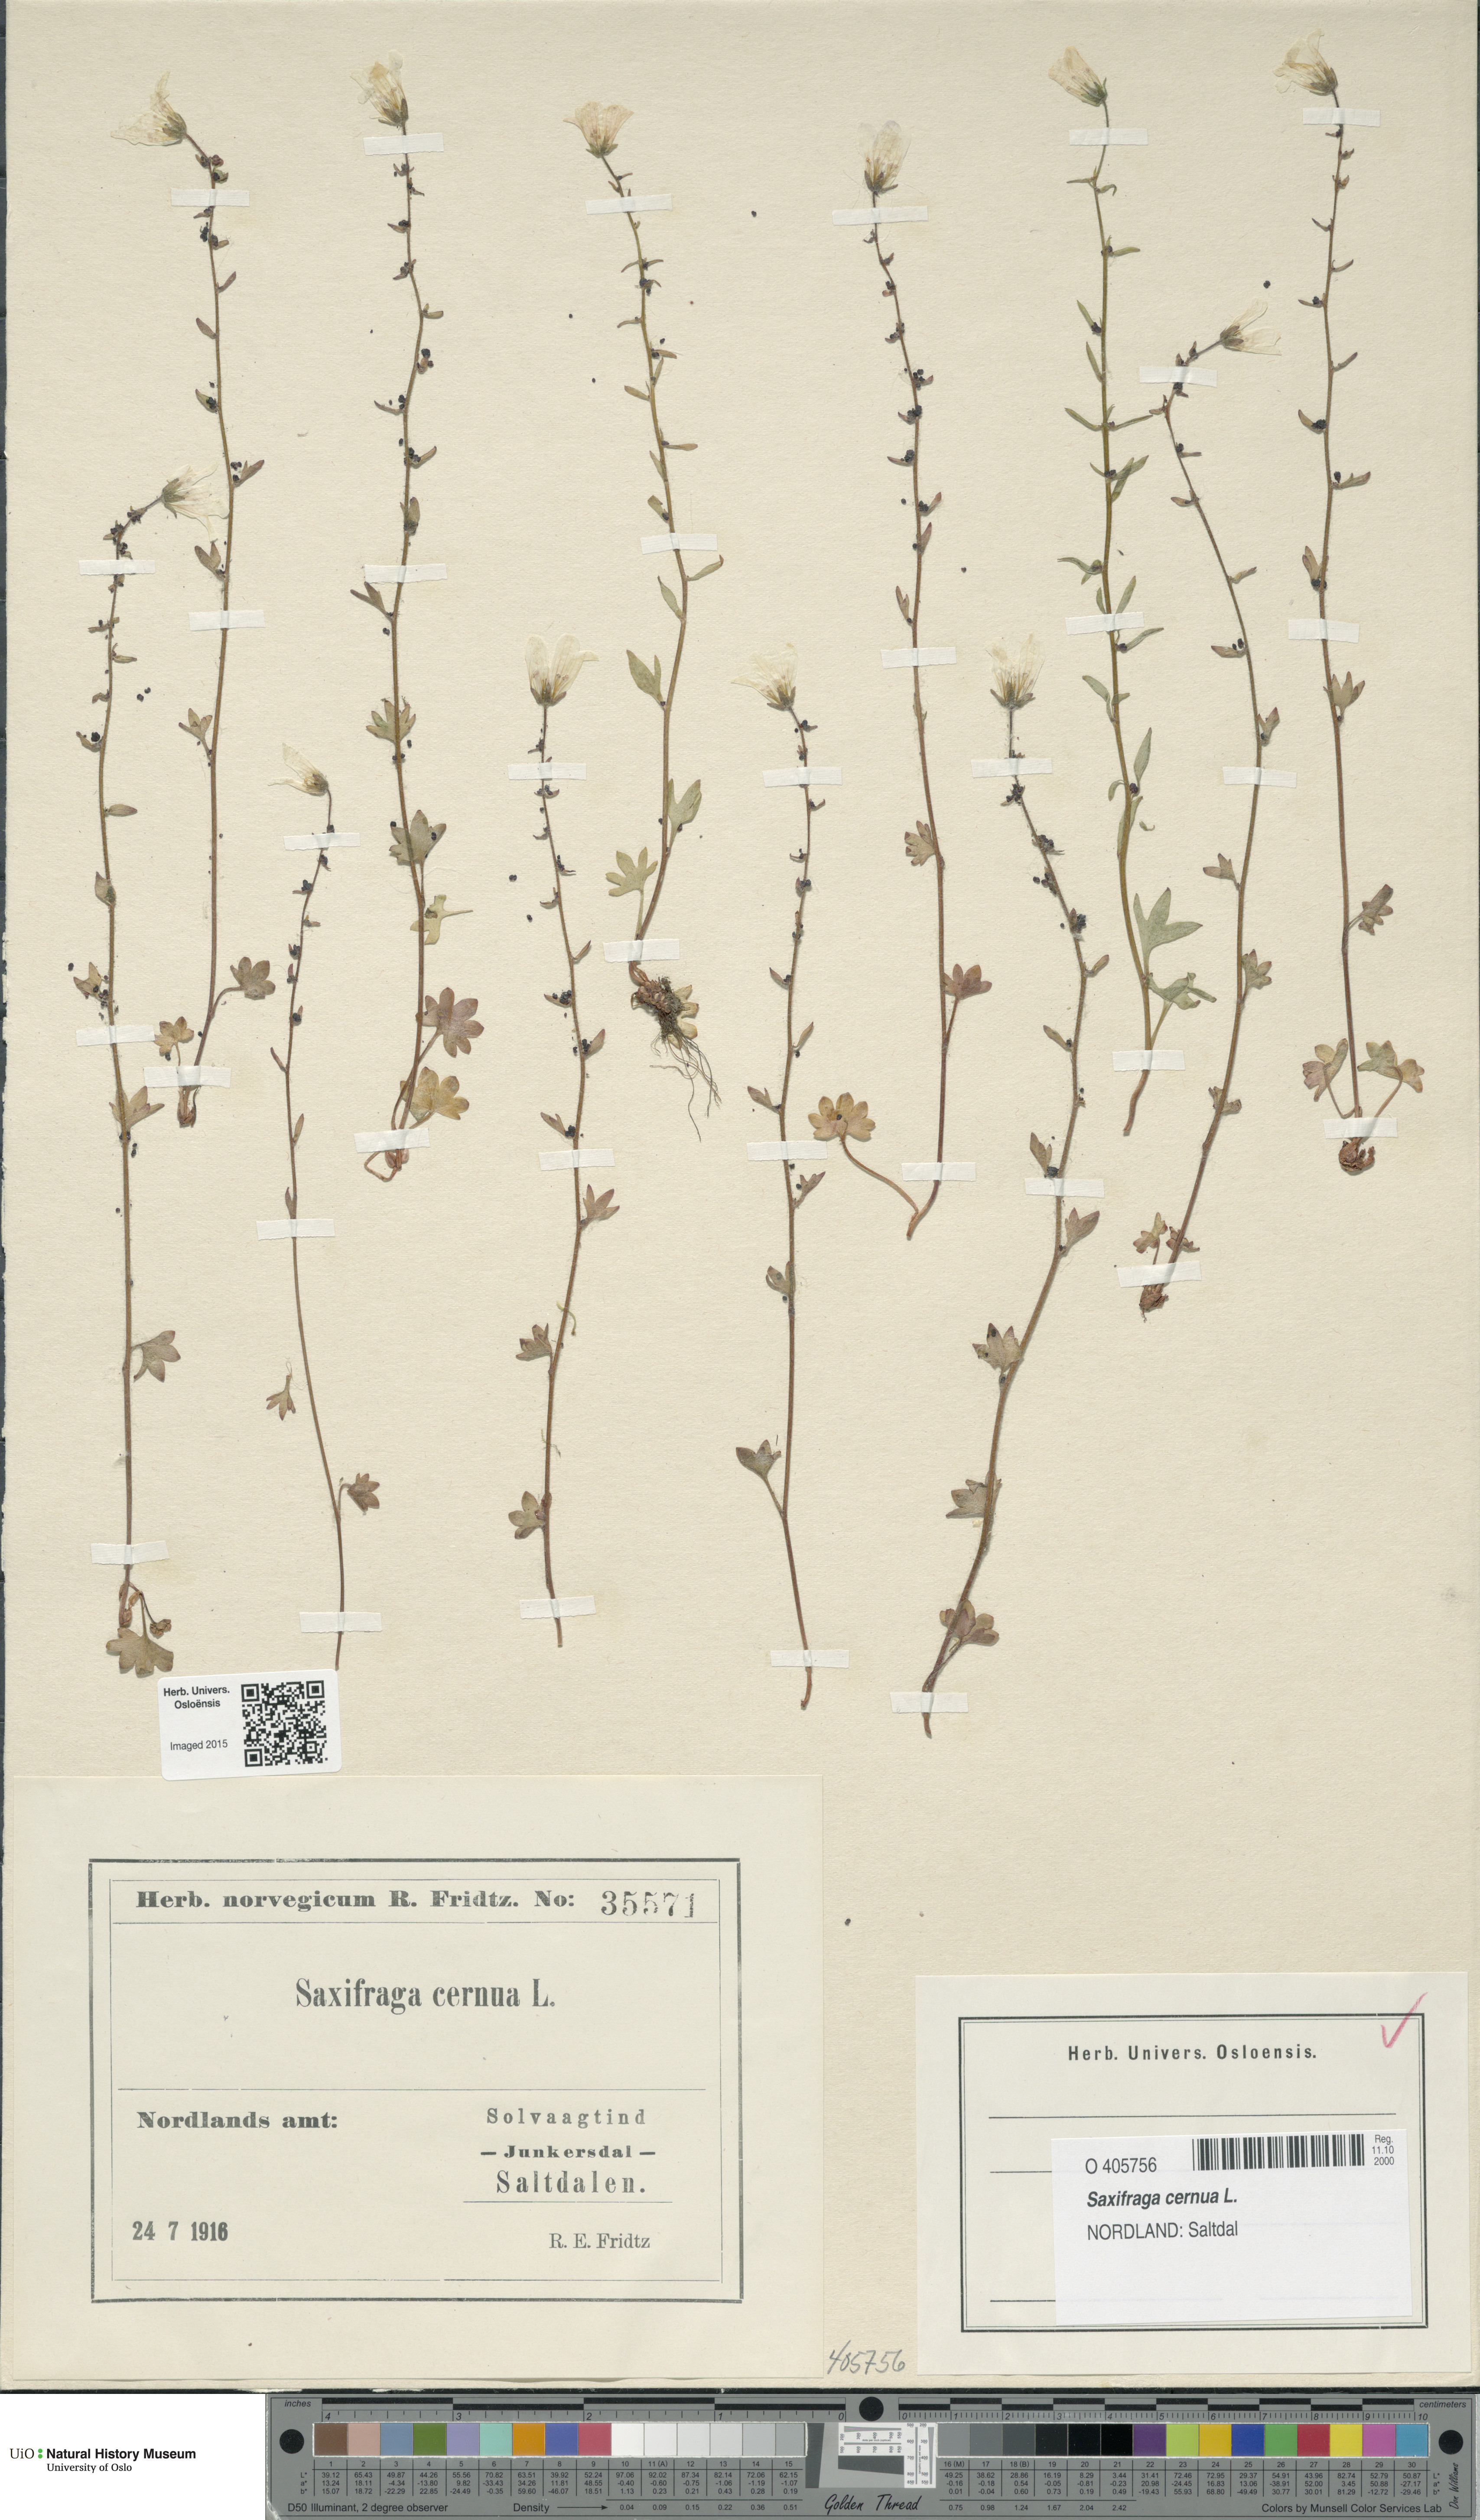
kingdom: Plantae
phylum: Tracheophyta
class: Magnoliopsida
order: Saxifragales
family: Saxifragaceae
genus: Saxifraga
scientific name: Saxifraga cernua
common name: Drooping saxifrage
